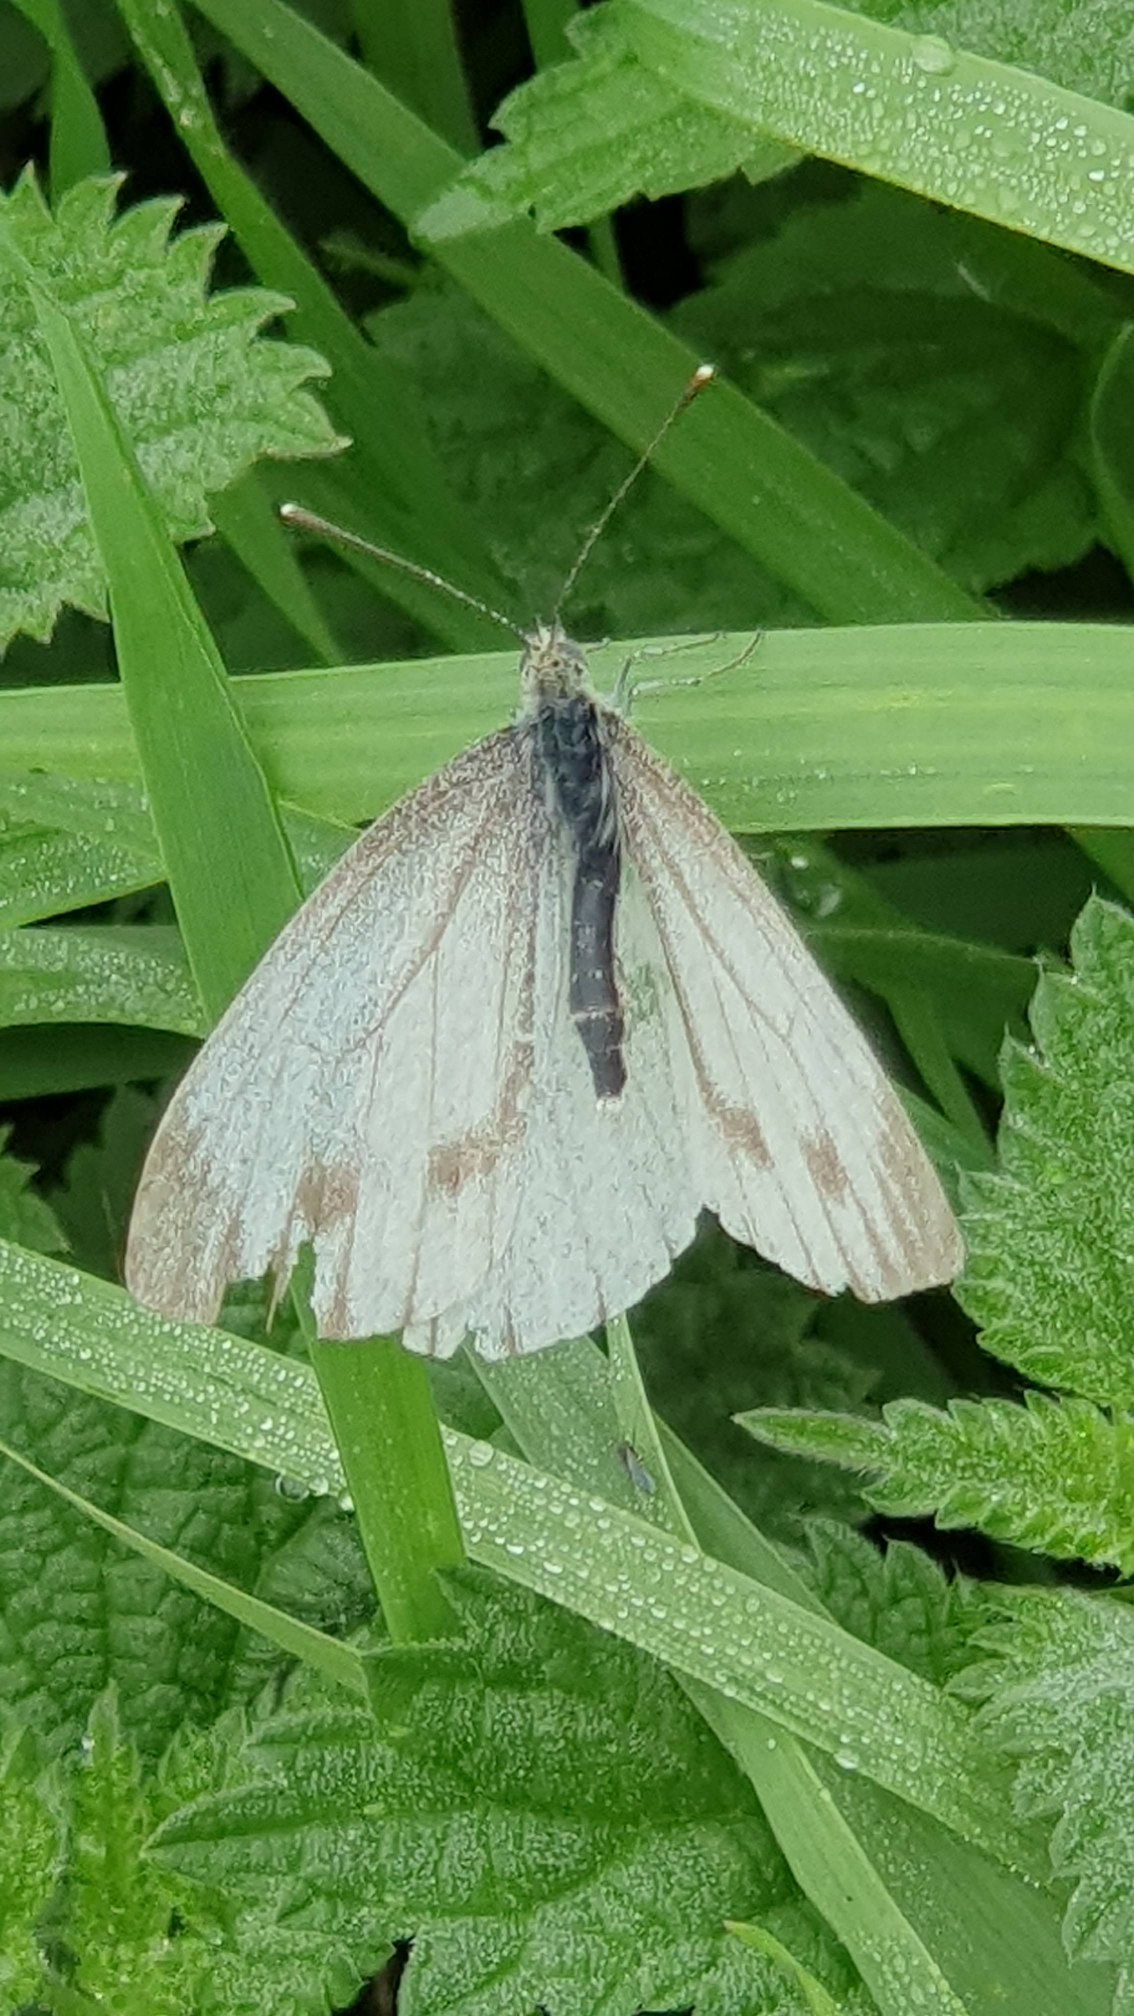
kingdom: Animalia
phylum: Arthropoda
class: Insecta
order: Lepidoptera
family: Pieridae
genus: Pieris
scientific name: Pieris napi
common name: Grønåret kålsommerfugl
